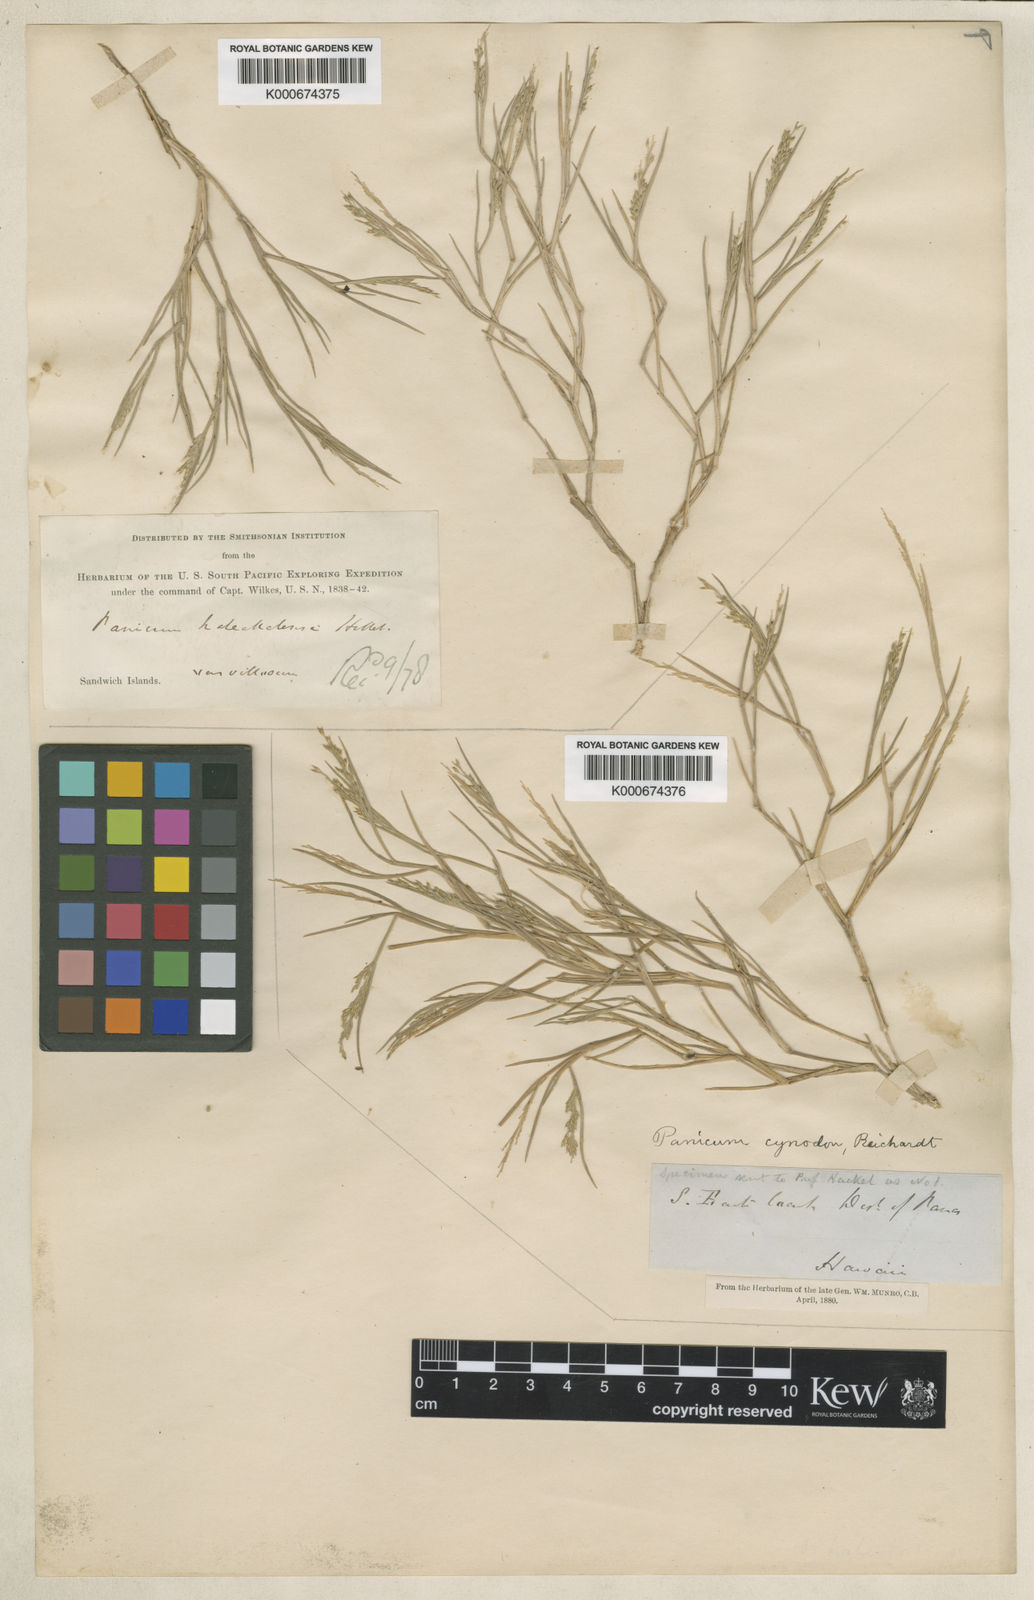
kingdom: Plantae
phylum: Tracheophyta
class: Liliopsida
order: Poales
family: Poaceae
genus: Dichanthelium
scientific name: Dichanthelium cynodon
